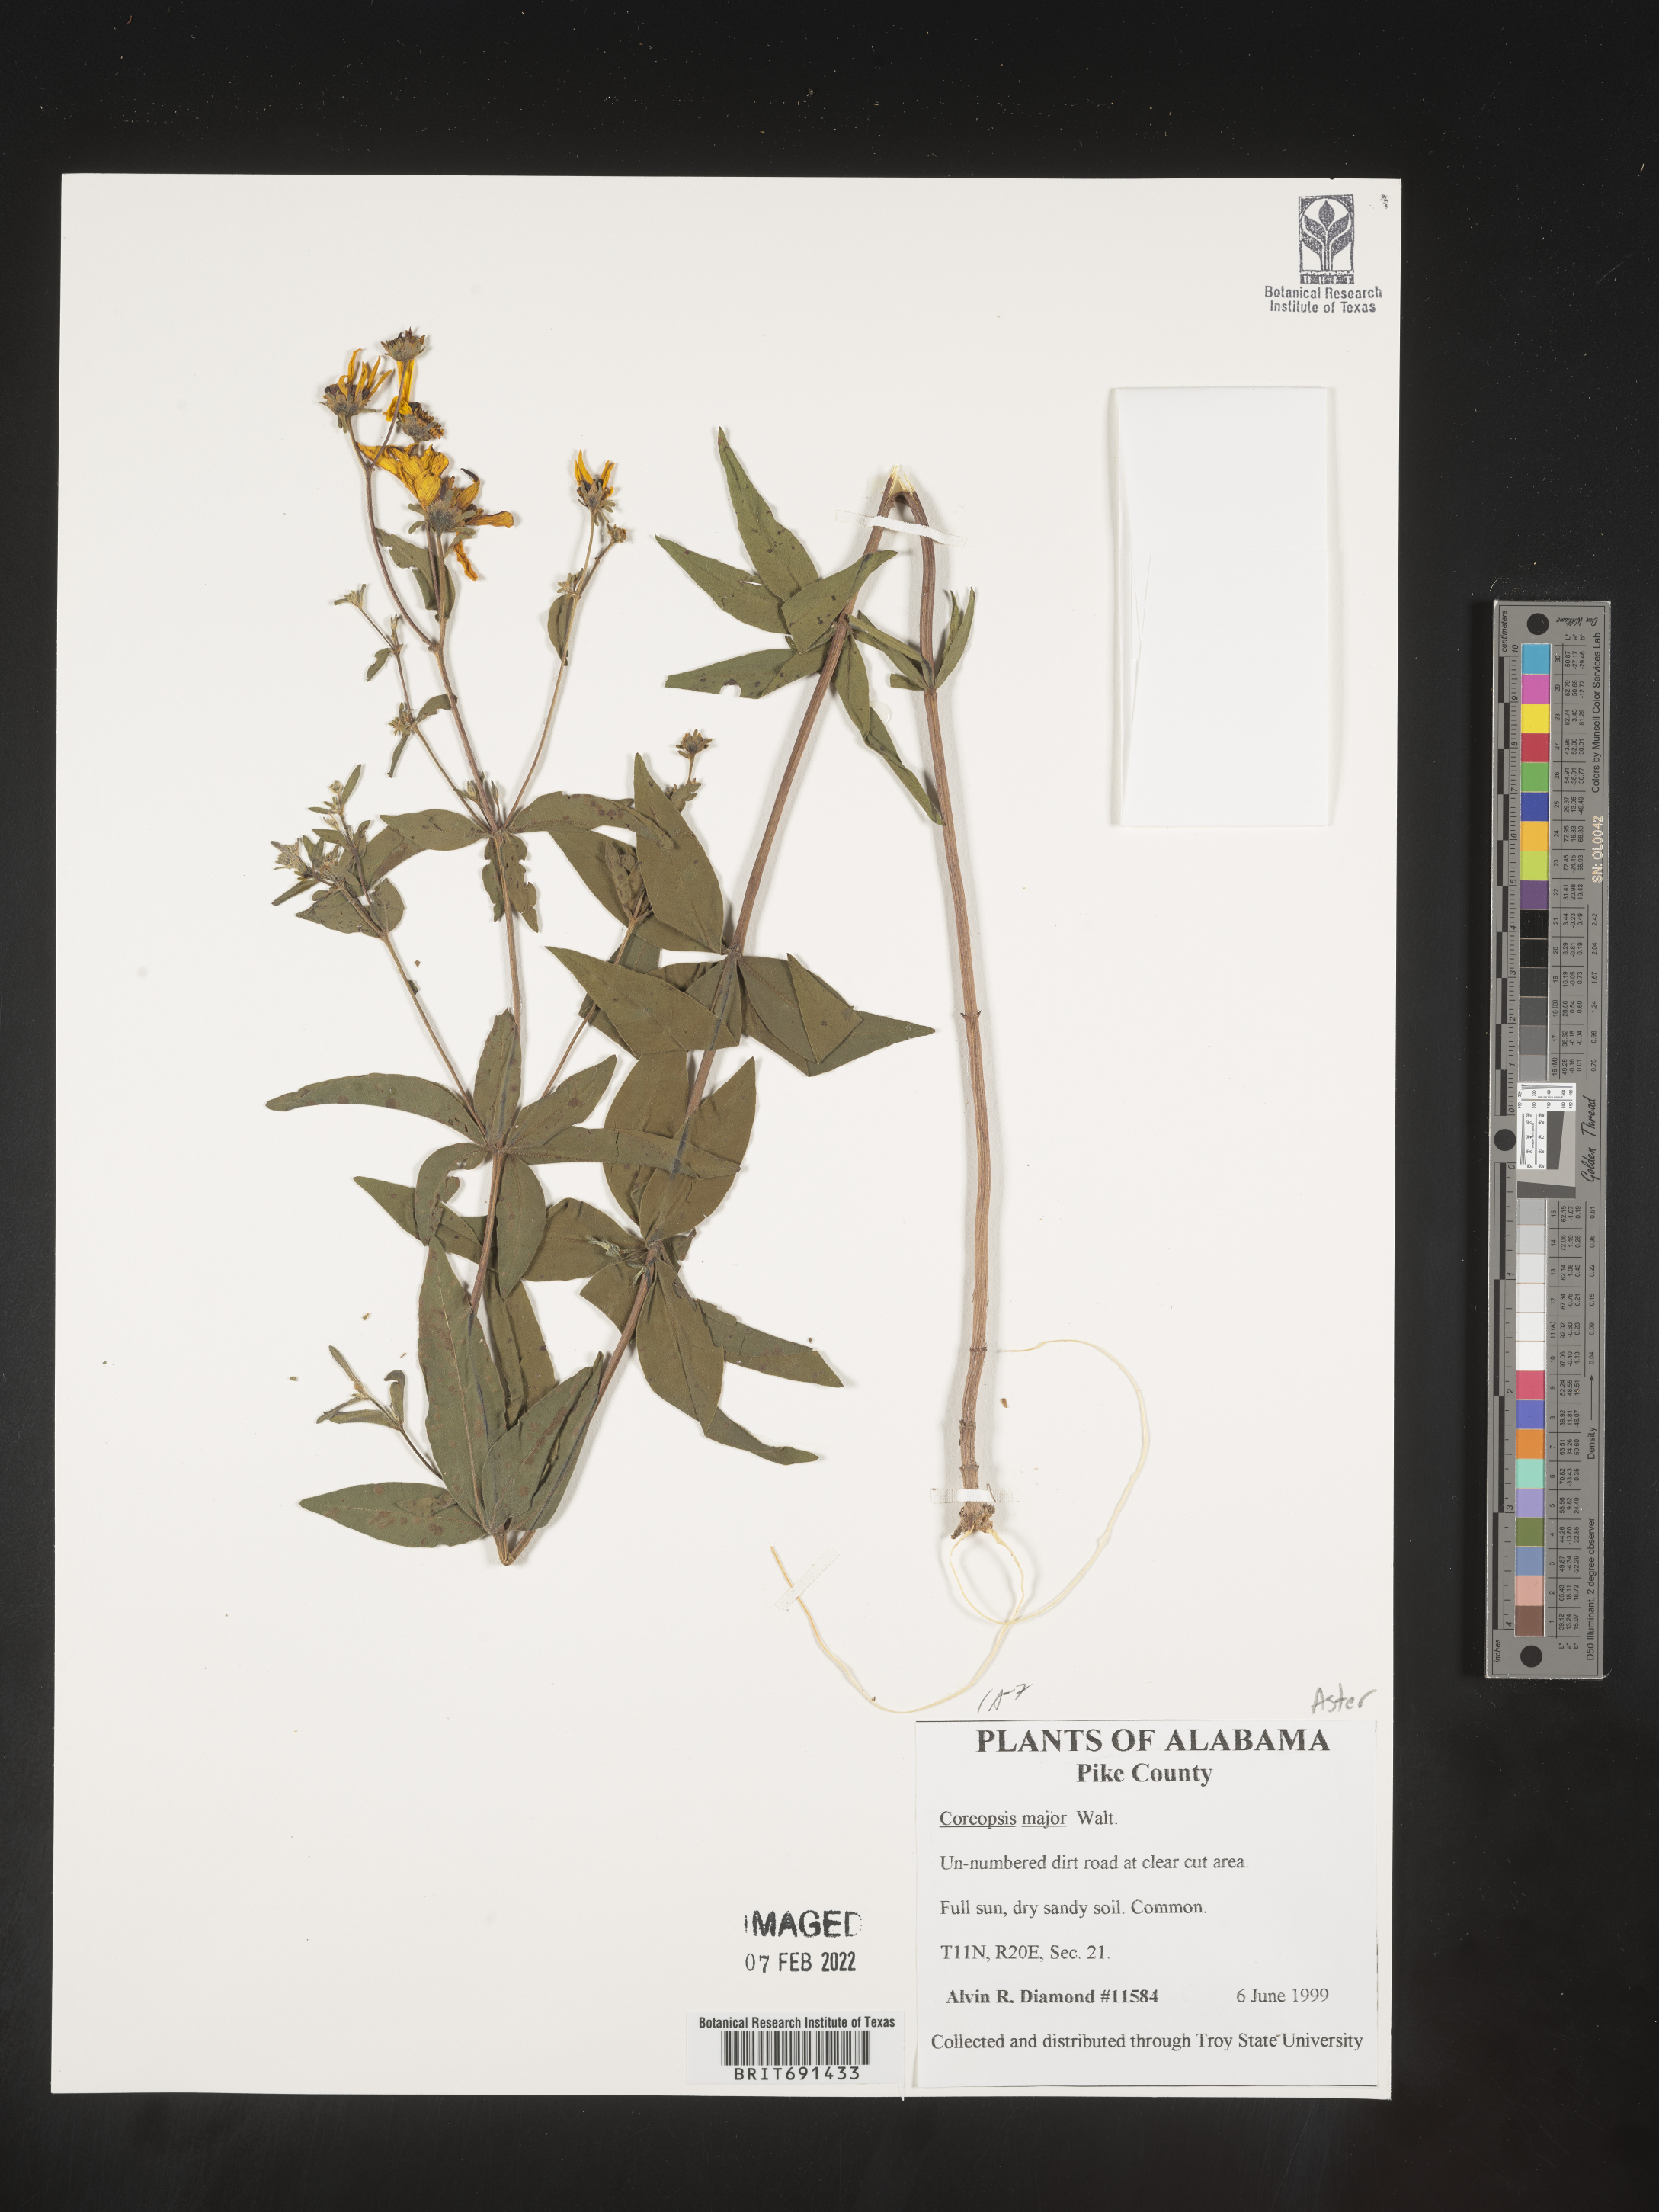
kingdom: Plantae
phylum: Tracheophyta
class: Magnoliopsida
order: Asterales
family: Asteraceae
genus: Coreopsis
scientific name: Coreopsis major
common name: Forest tickseed
